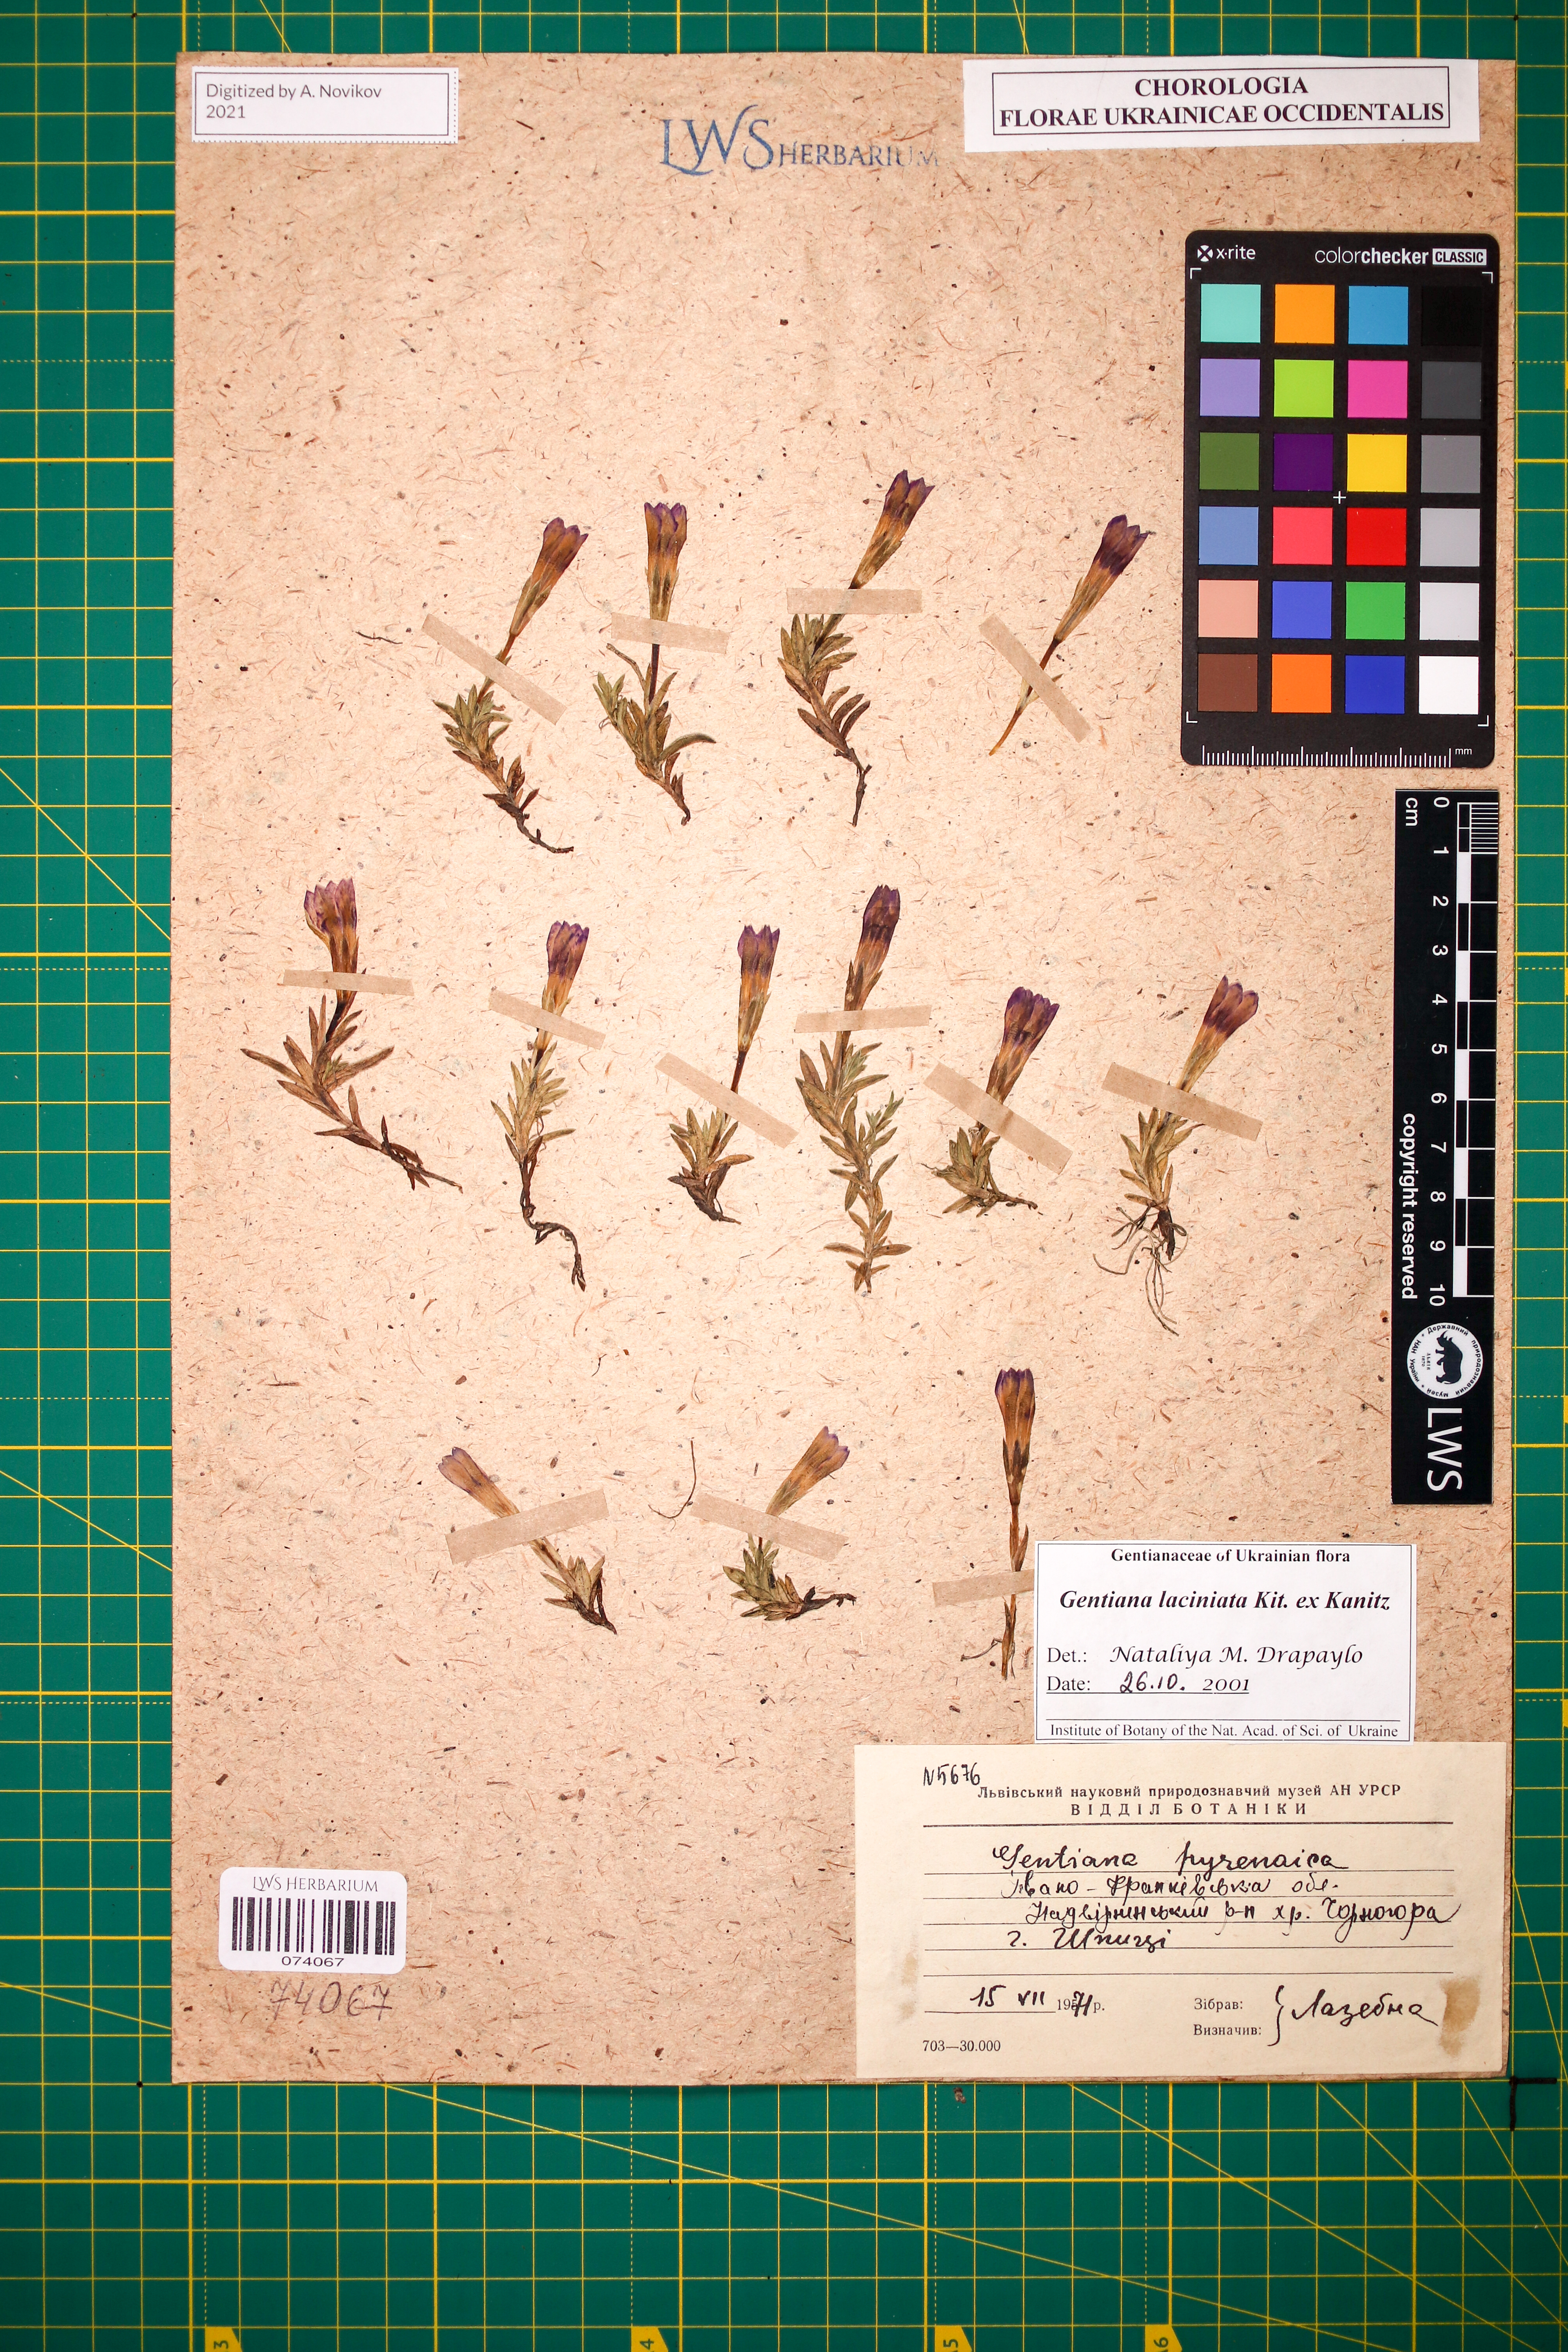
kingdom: Plantae
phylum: Tracheophyta
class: Magnoliopsida
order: Gentianales
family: Gentianaceae
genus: Gentiana
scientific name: Gentiana laciniata
